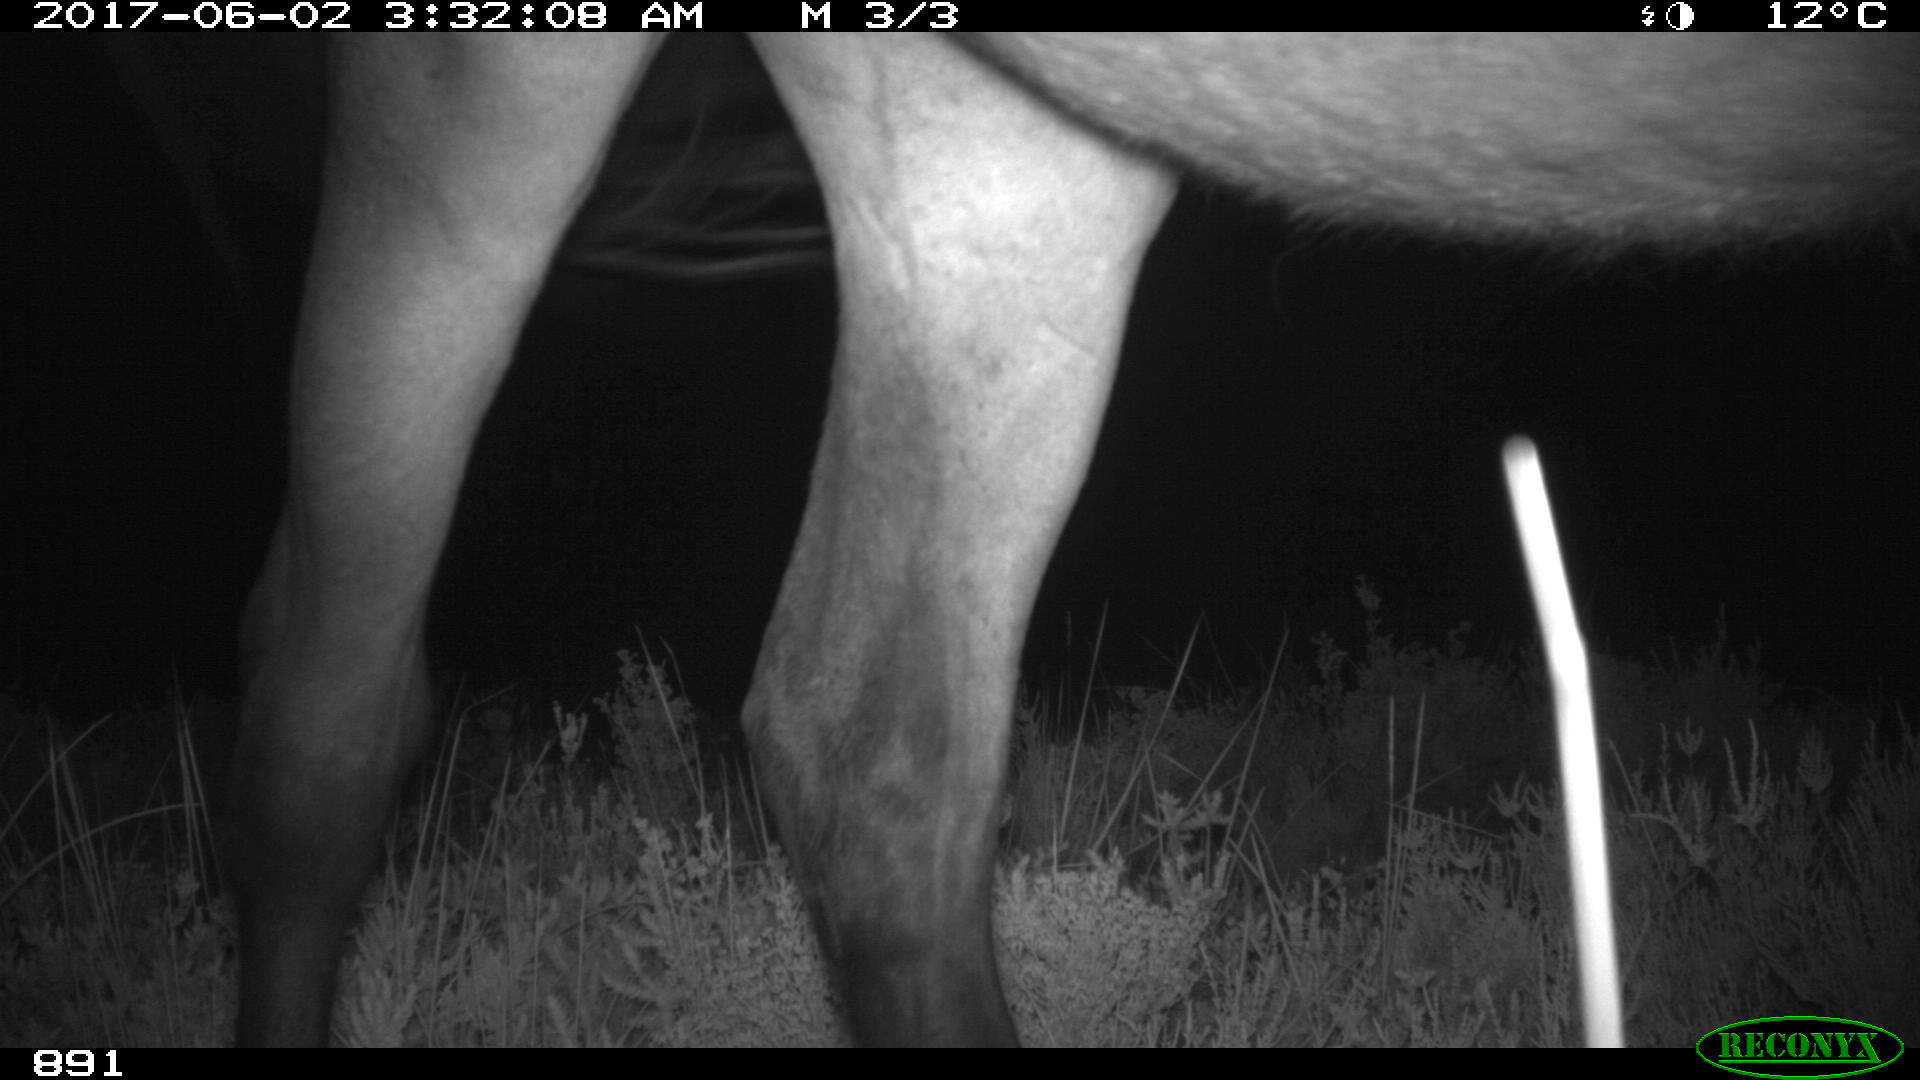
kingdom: Animalia
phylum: Chordata
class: Mammalia
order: Perissodactyla
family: Equidae
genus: Equus
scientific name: Equus caballus
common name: Horse
